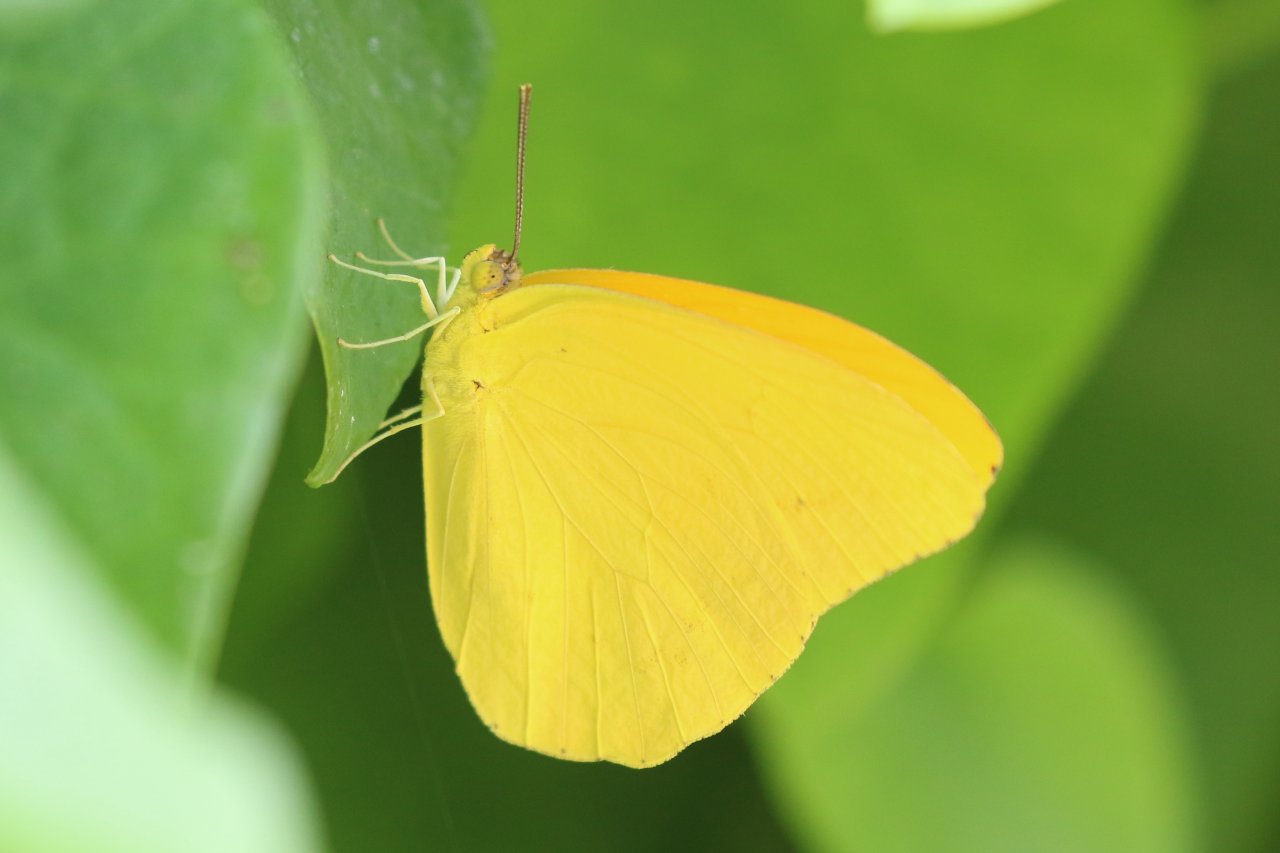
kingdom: Animalia
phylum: Arthropoda
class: Insecta
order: Lepidoptera
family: Pieridae
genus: Phoebis
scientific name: Phoebis agarithe
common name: Large Orange Sulphur
